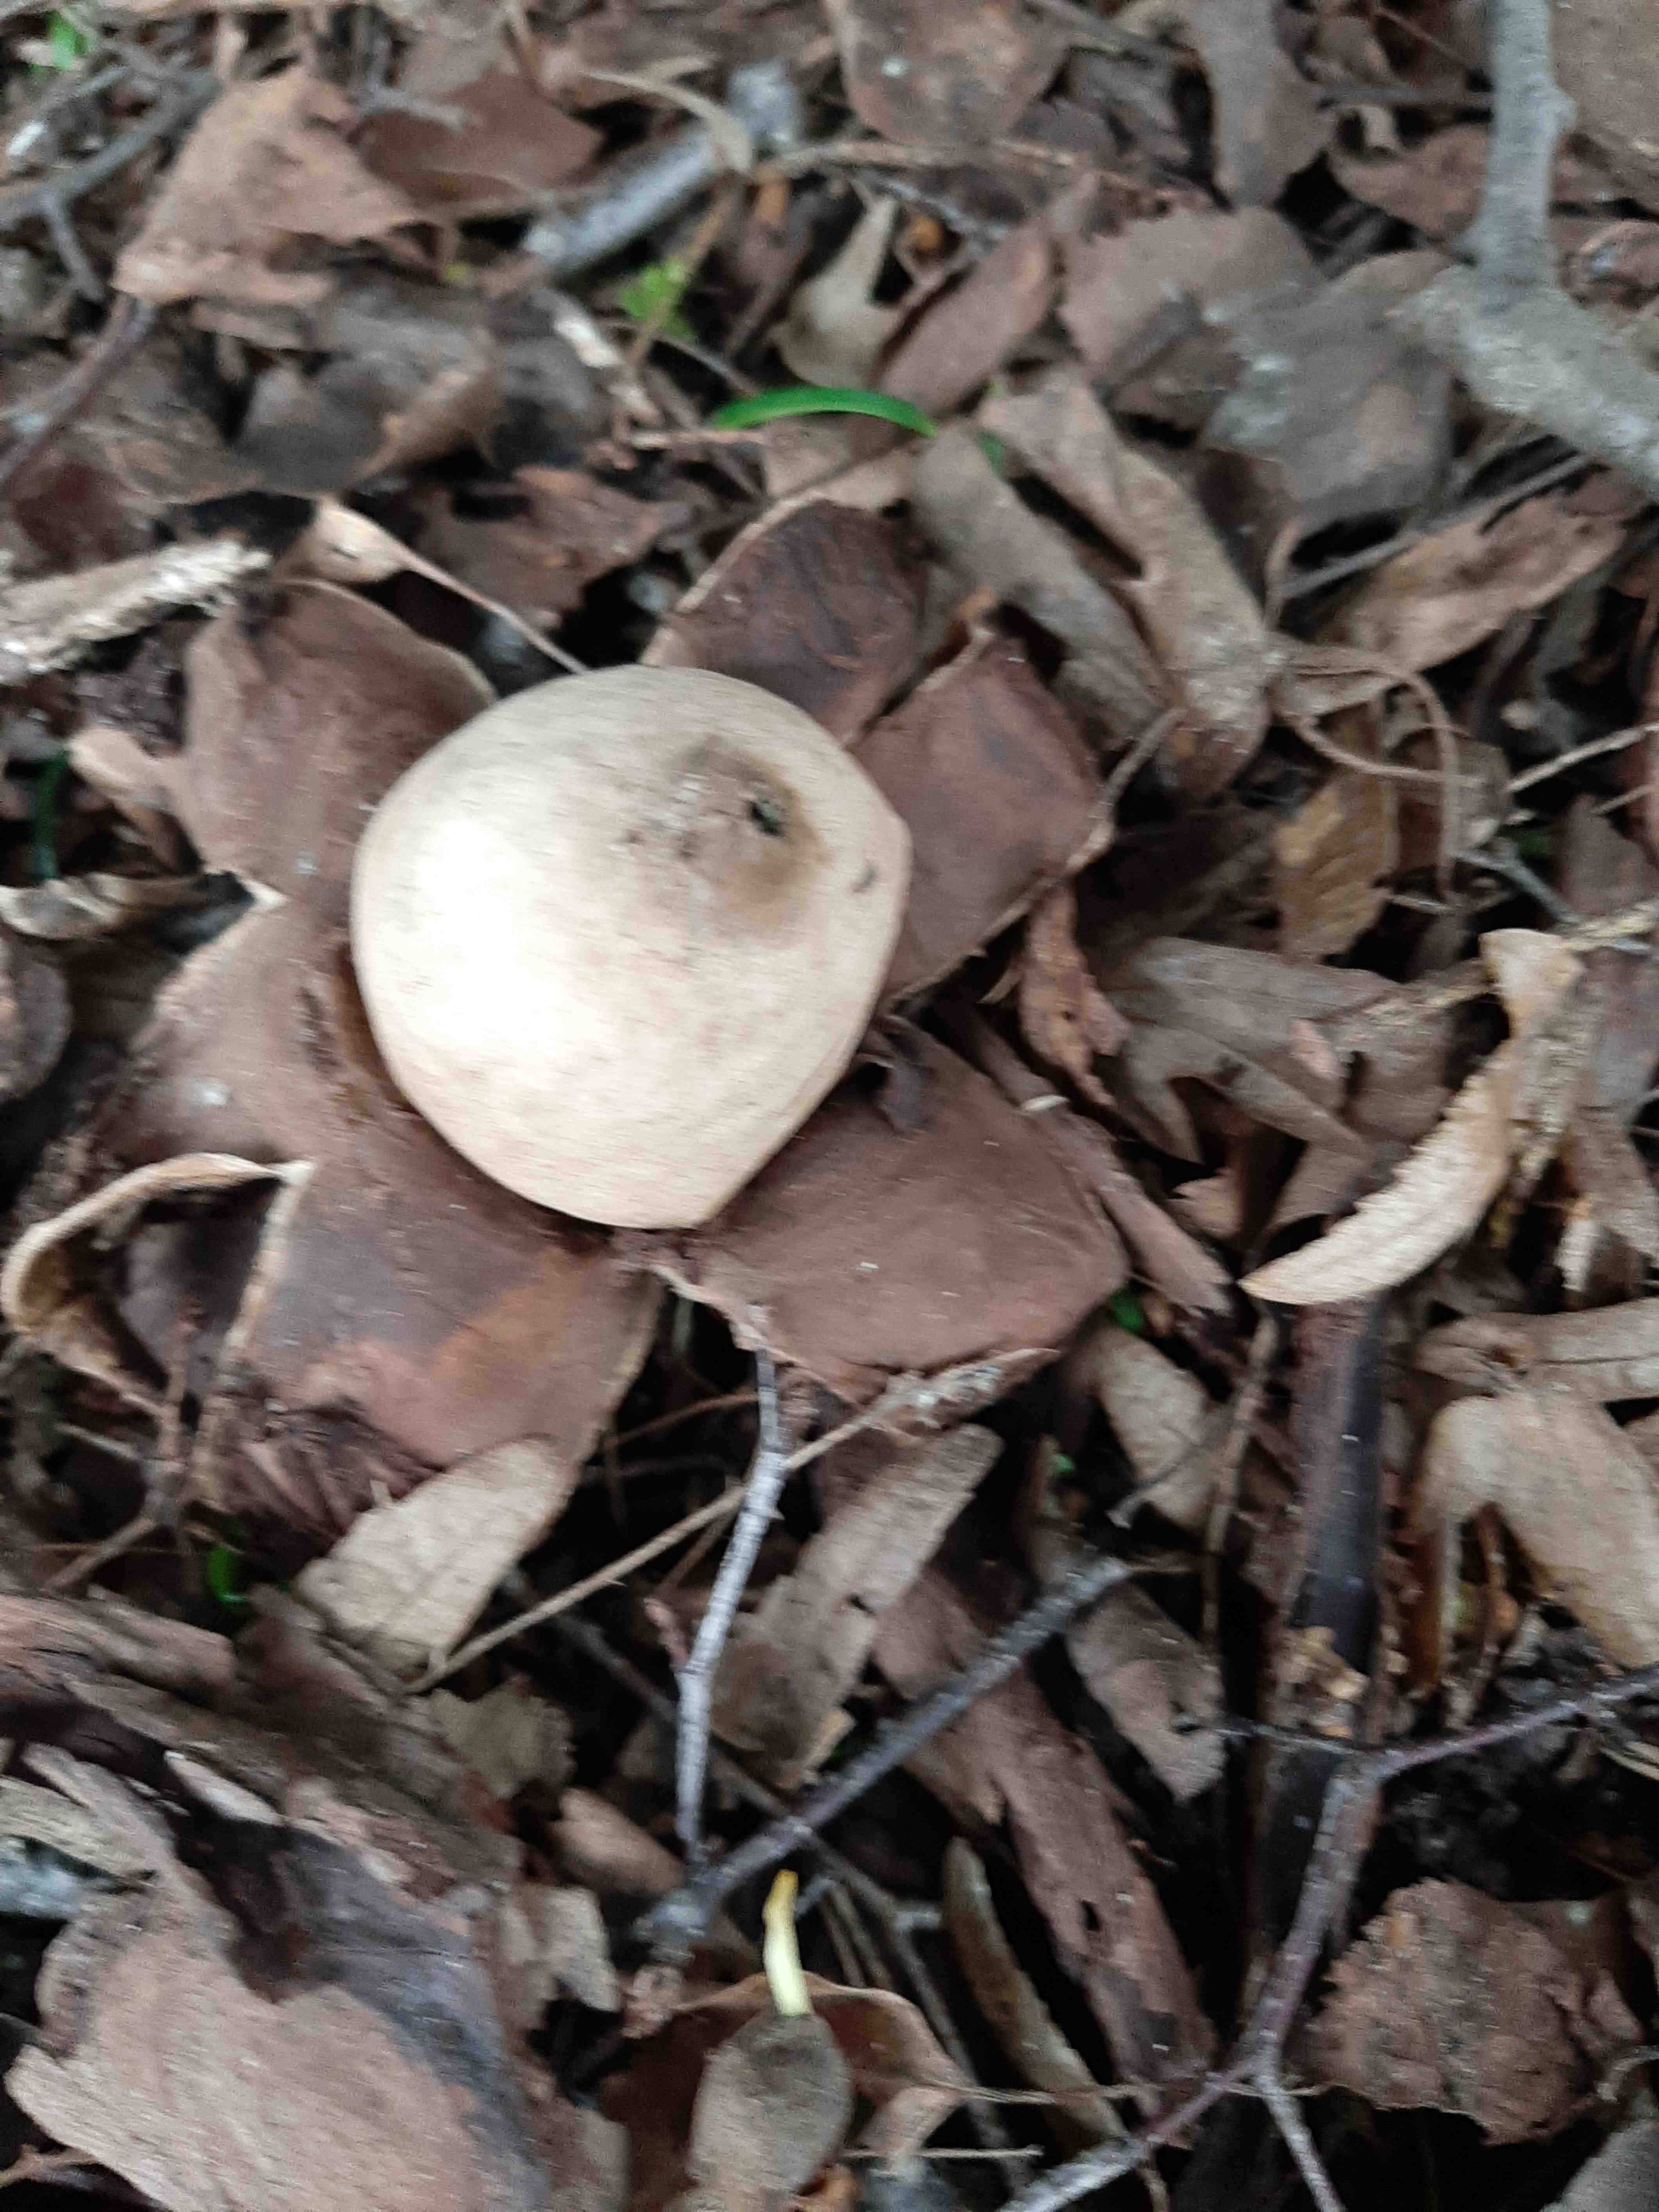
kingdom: Fungi
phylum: Basidiomycota
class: Agaricomycetes
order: Geastrales
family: Geastraceae
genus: Geastrum
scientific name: Geastrum michelianum
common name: kødet stjernebold
